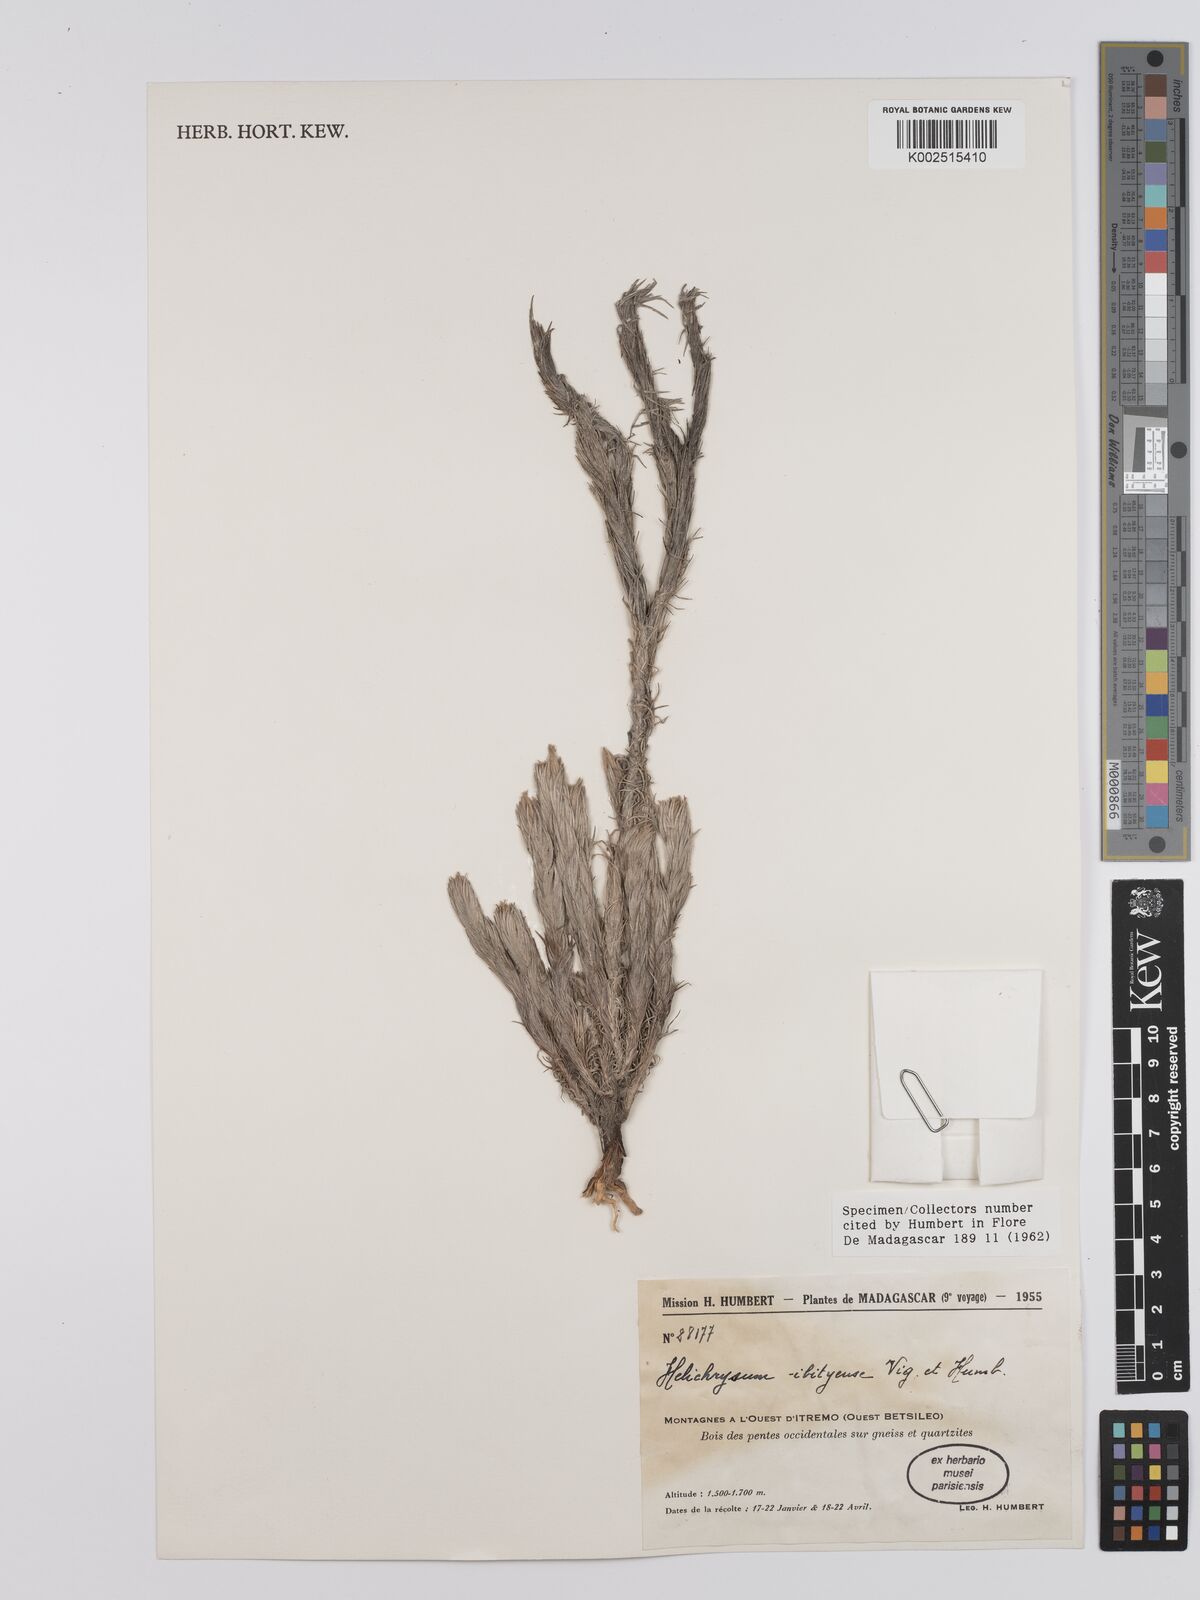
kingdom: Plantae
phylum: Tracheophyta
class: Magnoliopsida
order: Asterales
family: Asteraceae
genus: Helichrysum
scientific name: Helichrysum ibityense
